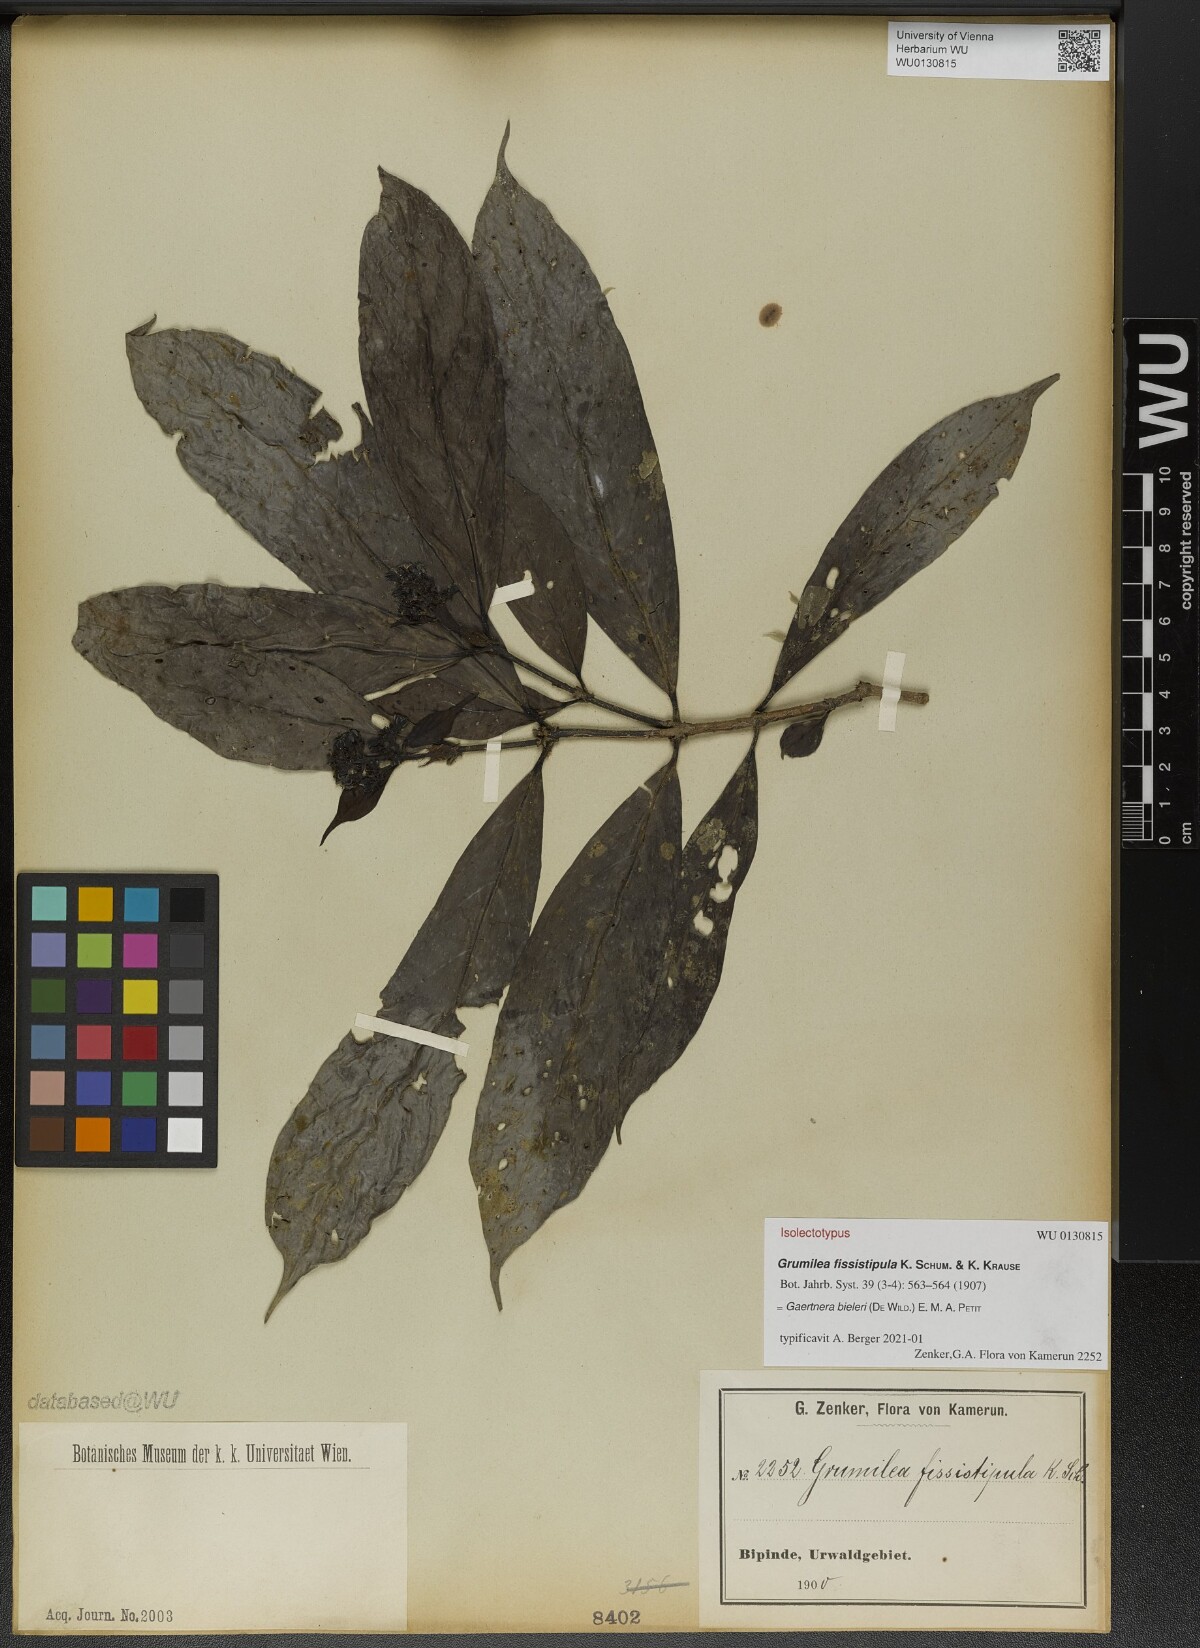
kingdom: Plantae
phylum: Tracheophyta
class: Magnoliopsida
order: Gentianales
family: Rubiaceae
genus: Gaertnera
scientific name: Gaertnera bieleri
